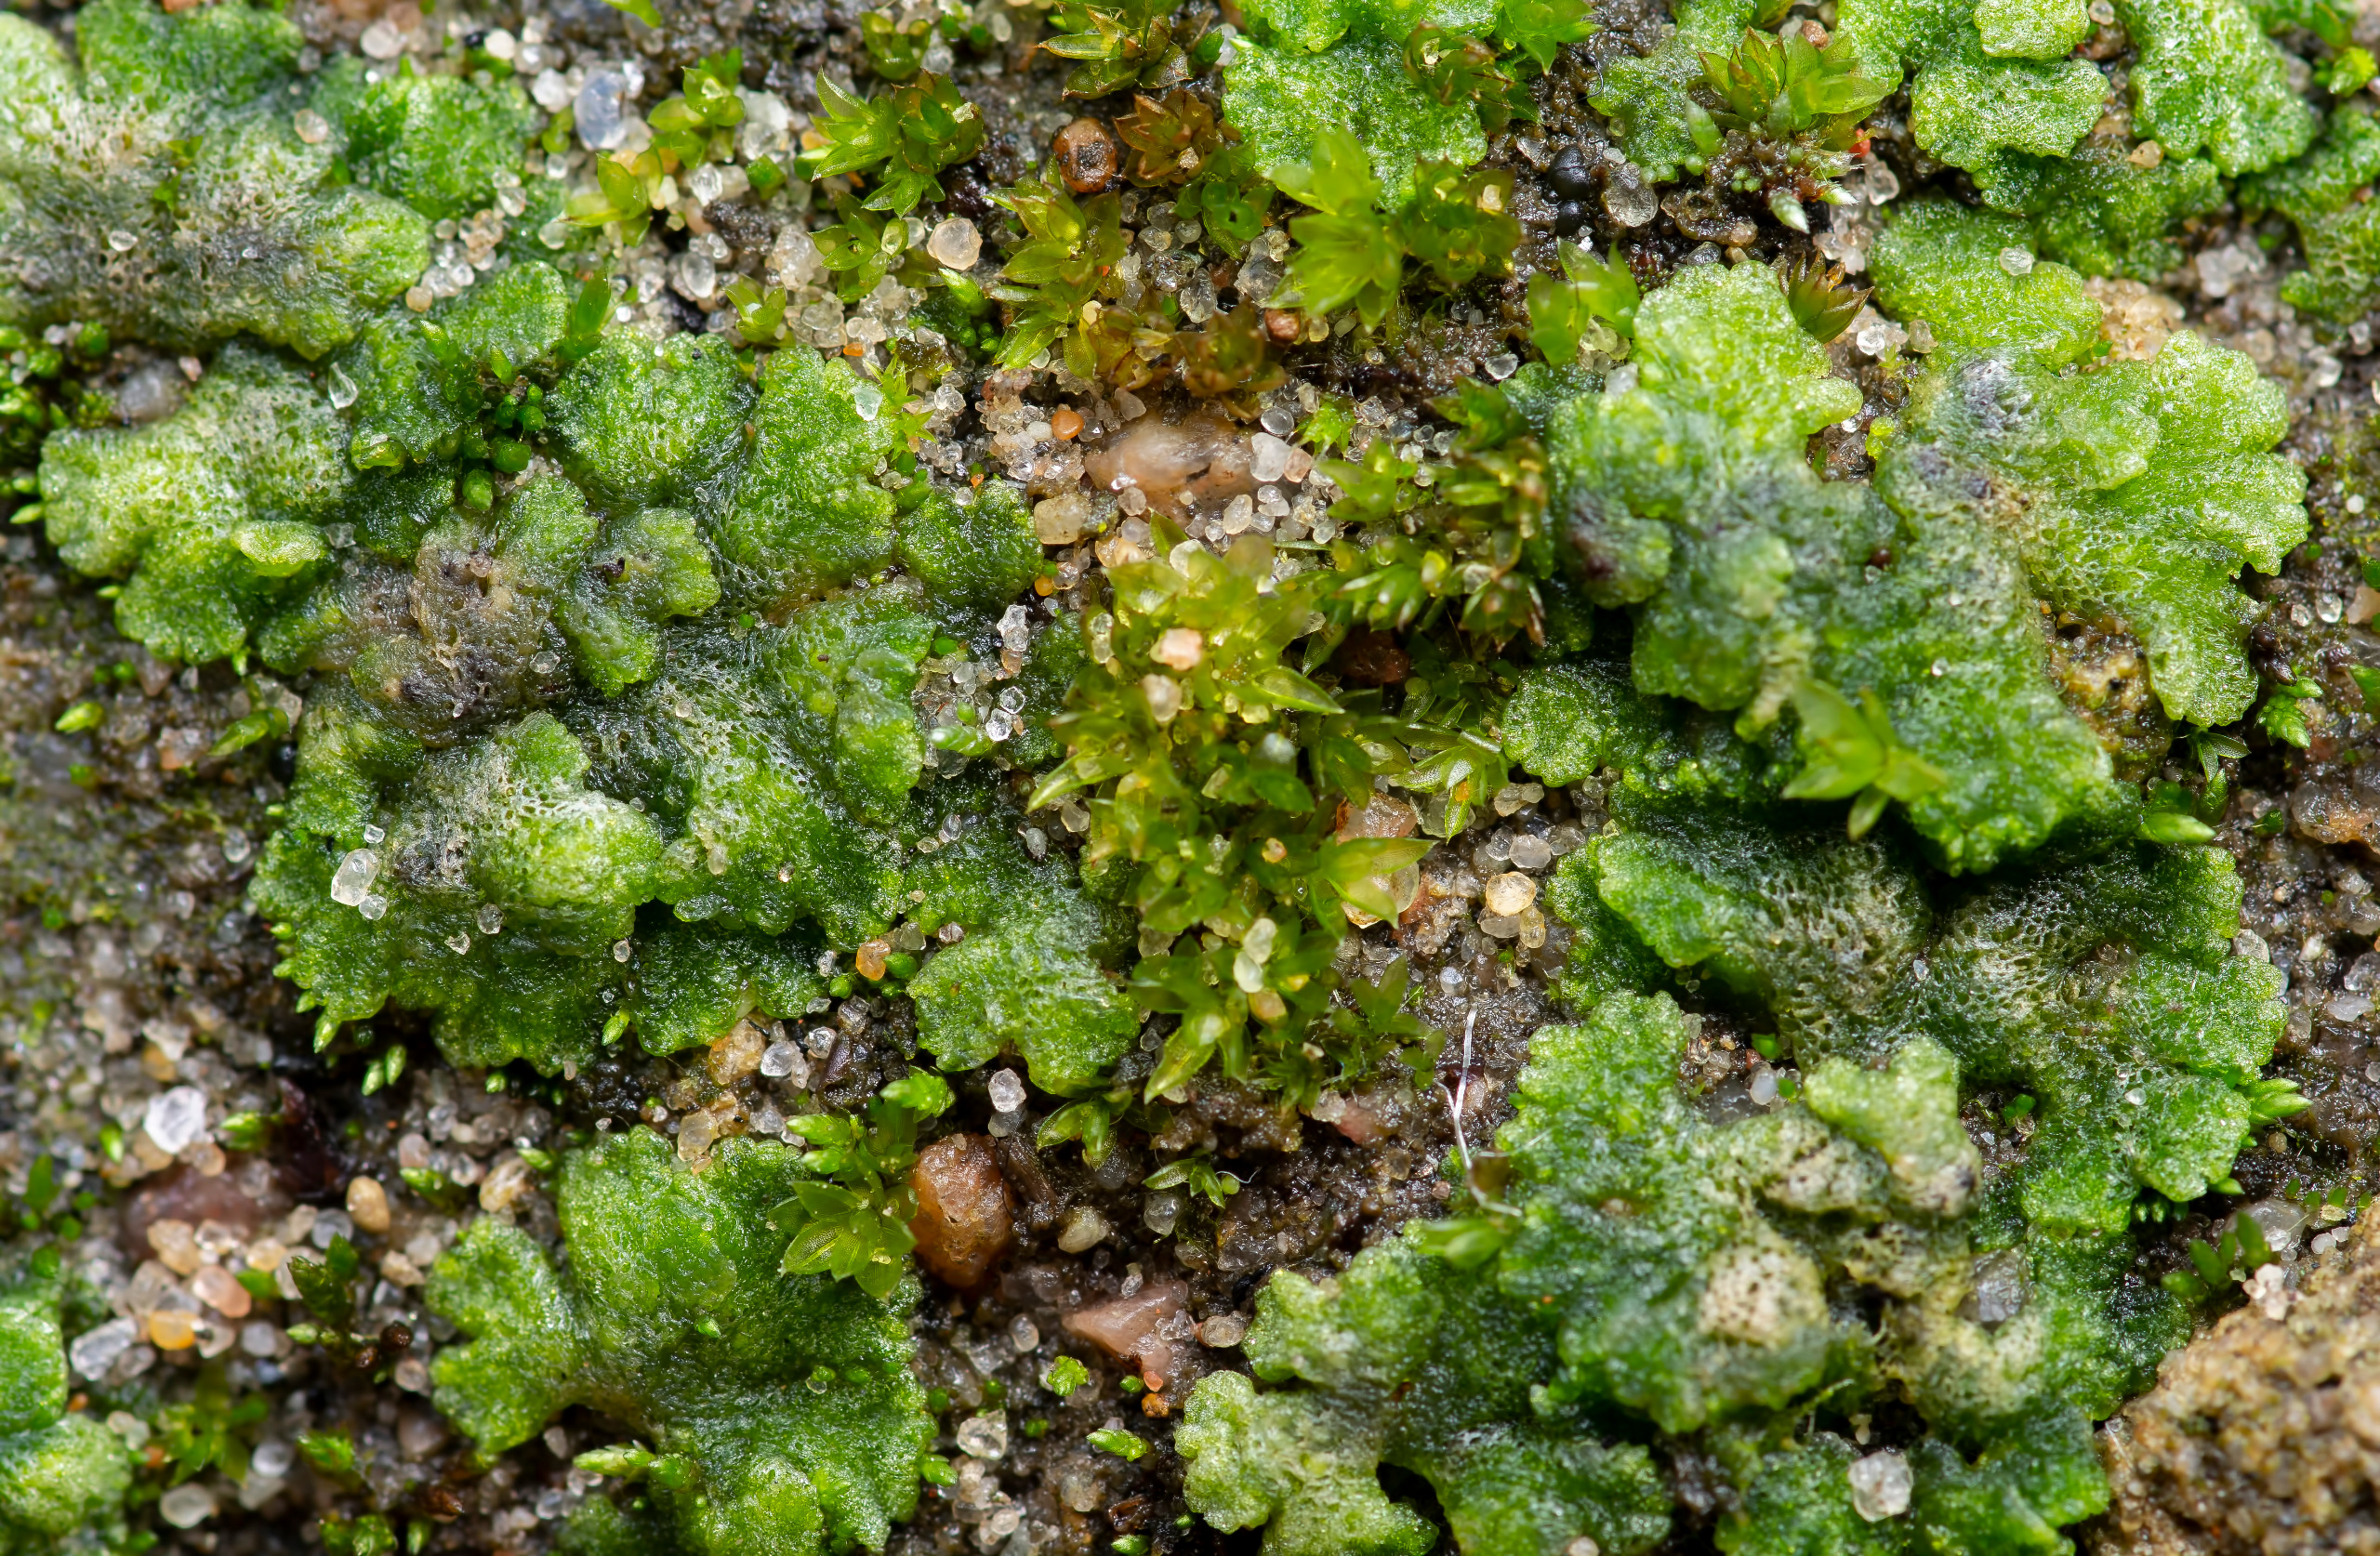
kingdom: Plantae
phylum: Marchantiophyta
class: Marchantiopsida
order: Marchantiales
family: Ricciaceae
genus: Riccia
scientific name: Riccia cavernosa
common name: Grubet stjerneløv
